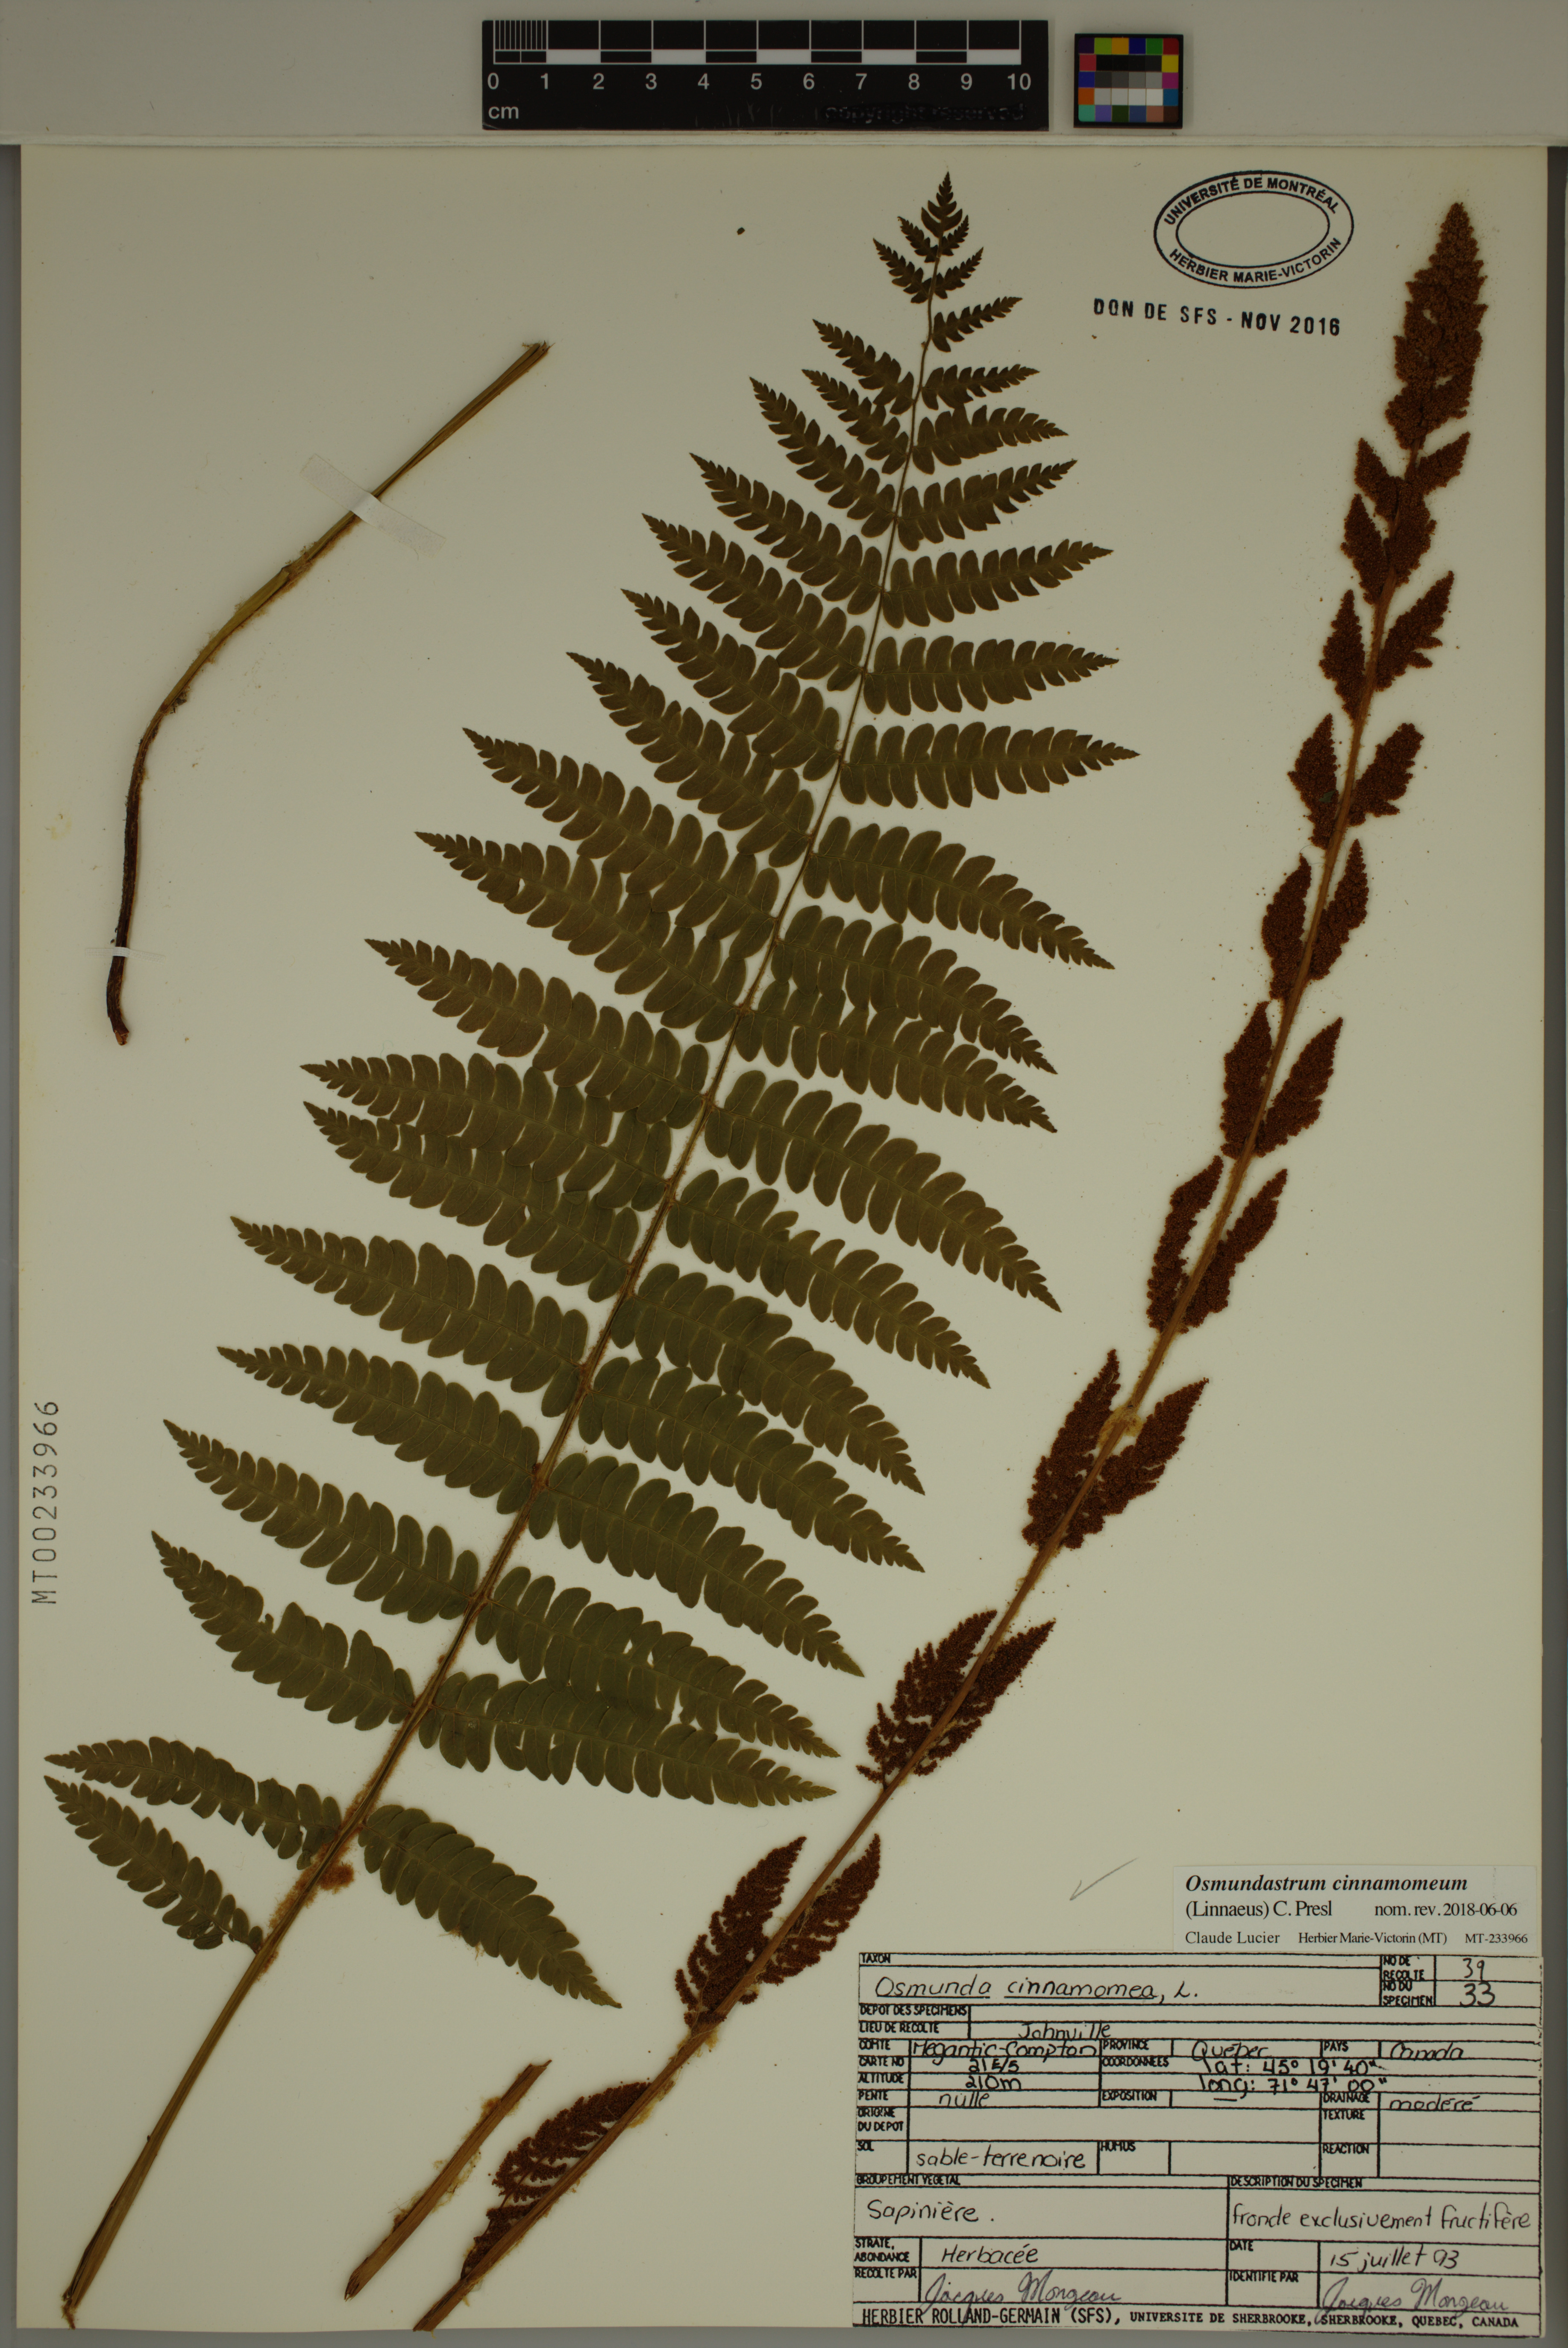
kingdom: Plantae
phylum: Tracheophyta
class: Polypodiopsida
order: Osmundales
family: Osmundaceae
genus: Osmundastrum
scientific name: Osmundastrum cinnamomeum
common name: Cinnamon fern
